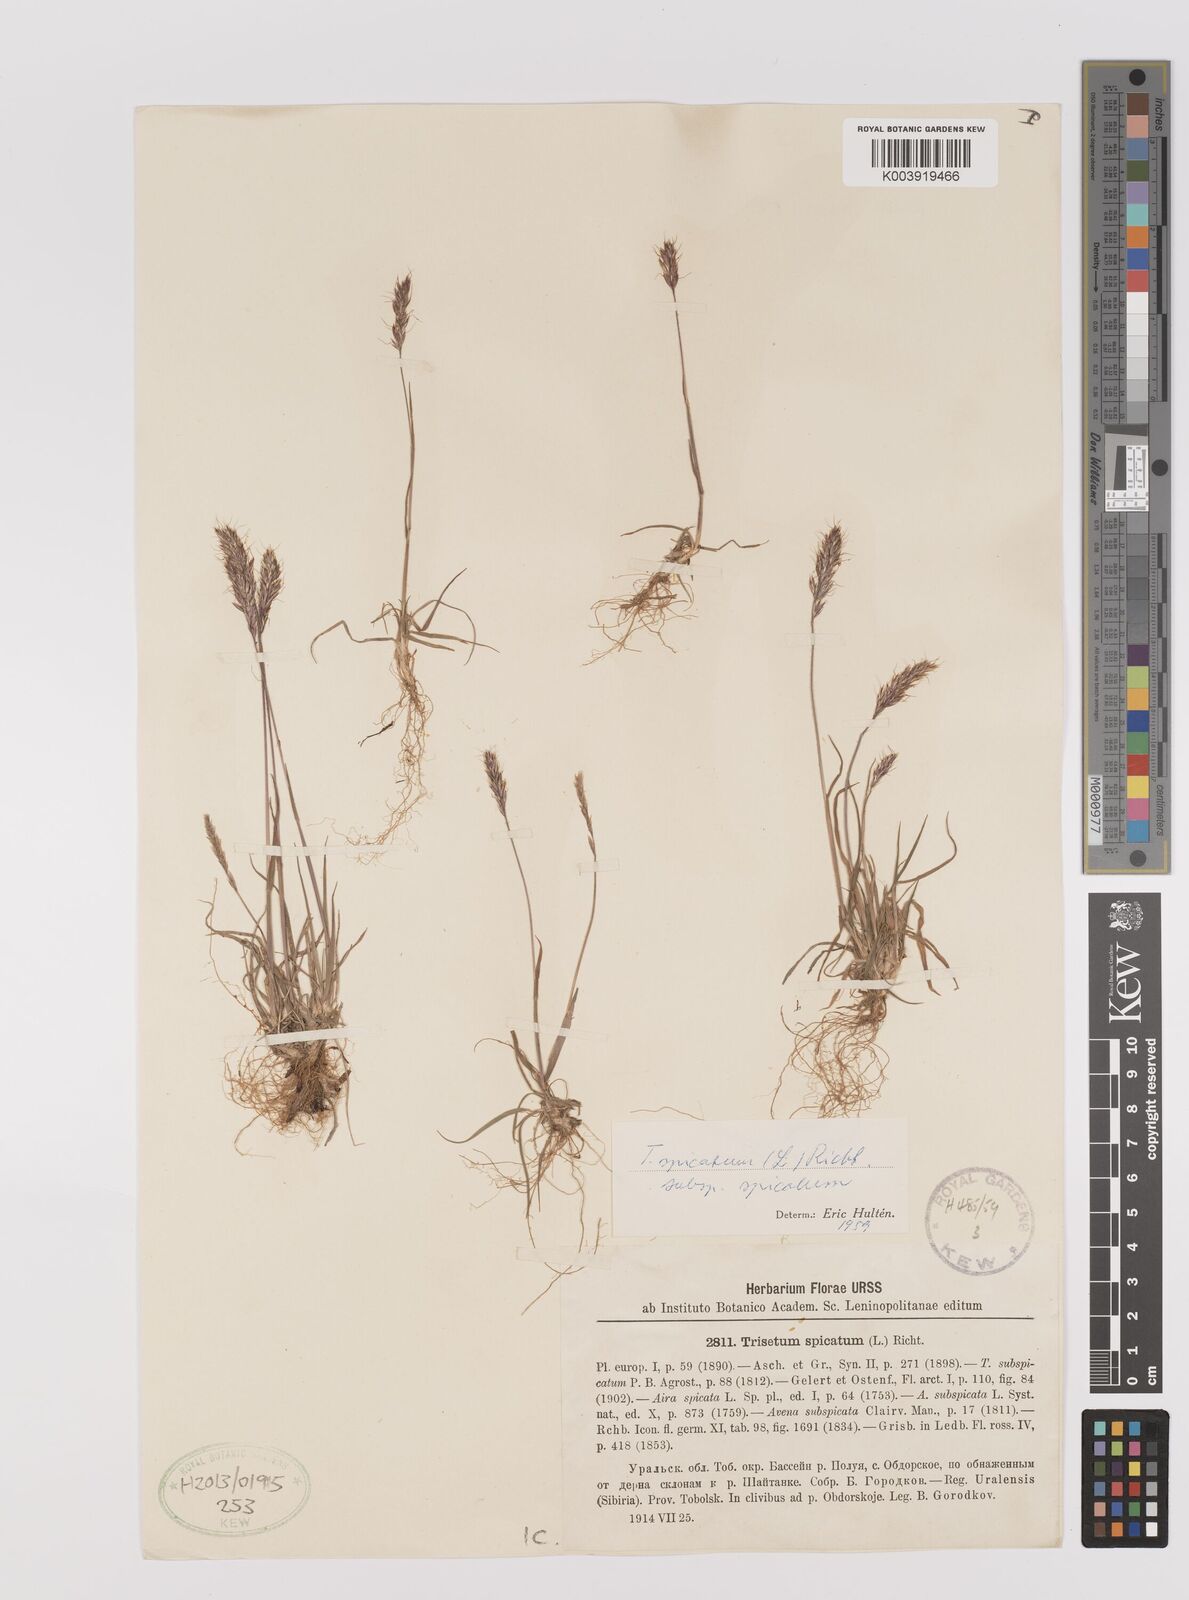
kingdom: Plantae
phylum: Tracheophyta
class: Liliopsida
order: Poales
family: Poaceae
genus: Koeleria
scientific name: Koeleria spicata
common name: Mountain trisetum
